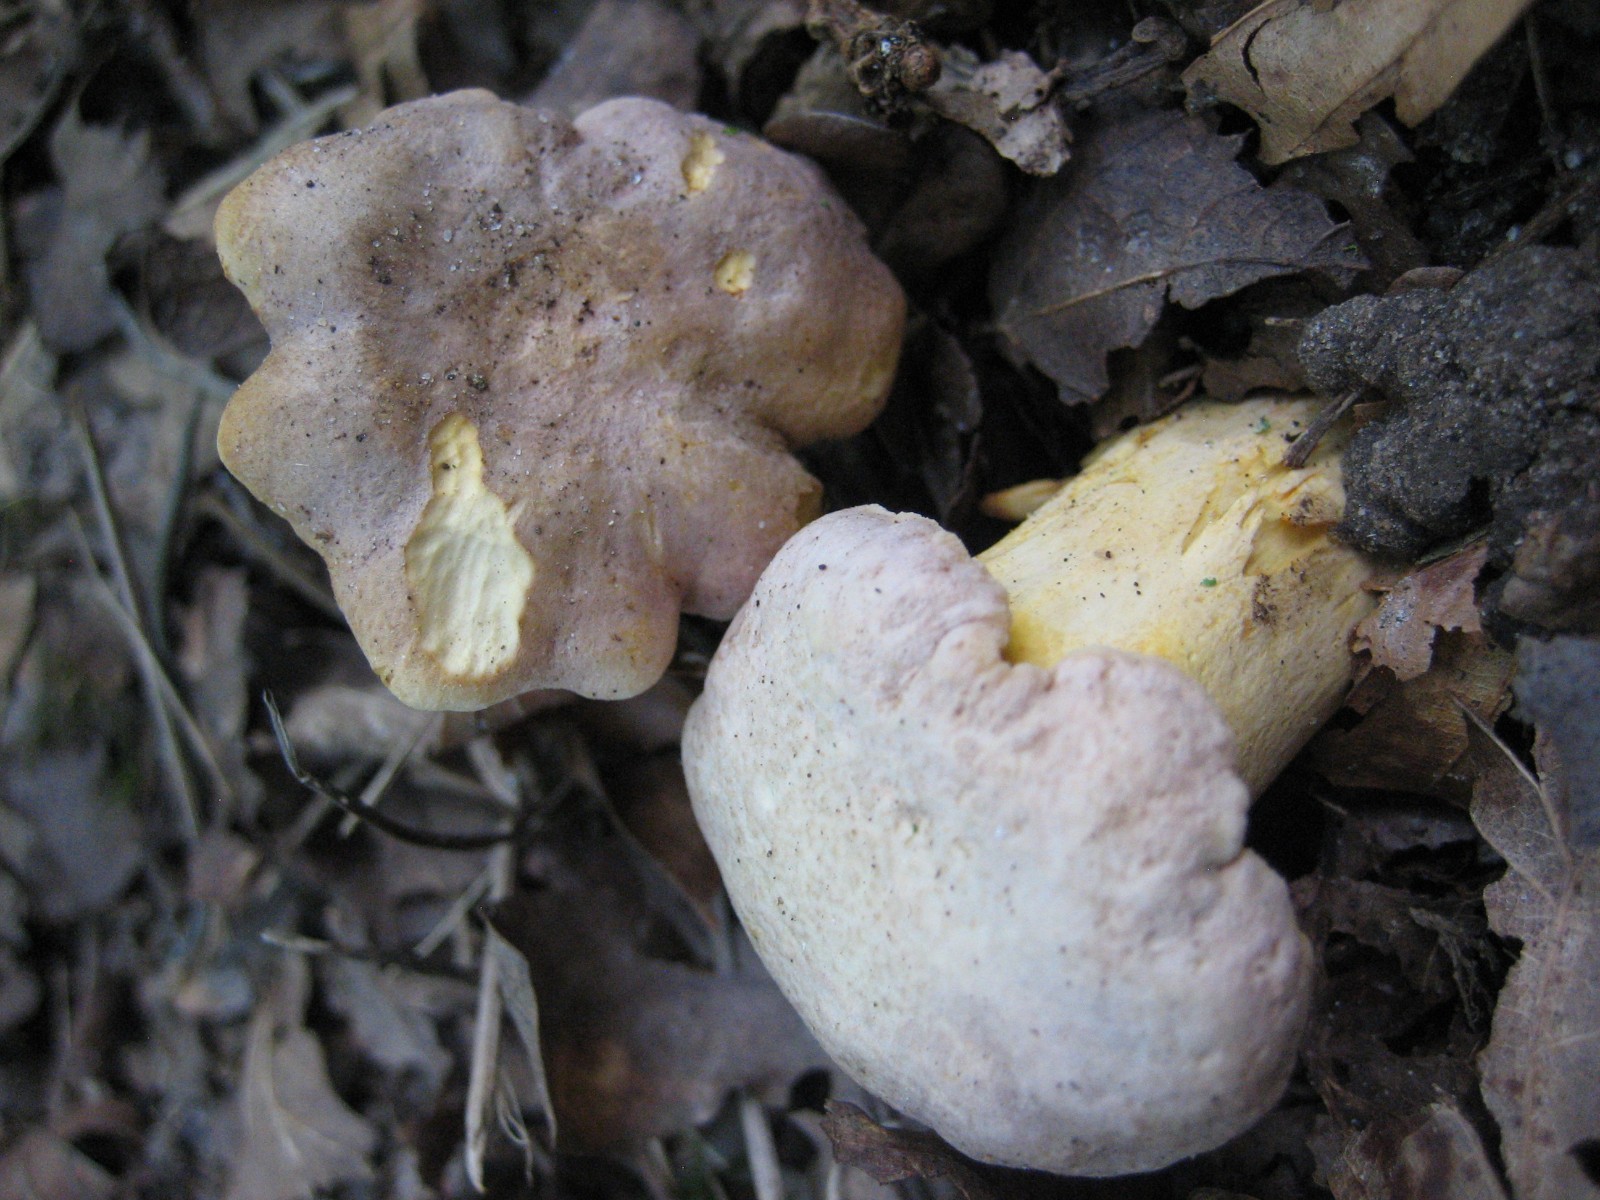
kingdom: Fungi
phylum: Basidiomycota
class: Agaricomycetes
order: Cantharellales
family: Hydnaceae
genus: Cantharellus
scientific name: Cantharellus amethysteus
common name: ametyst-kantarel
